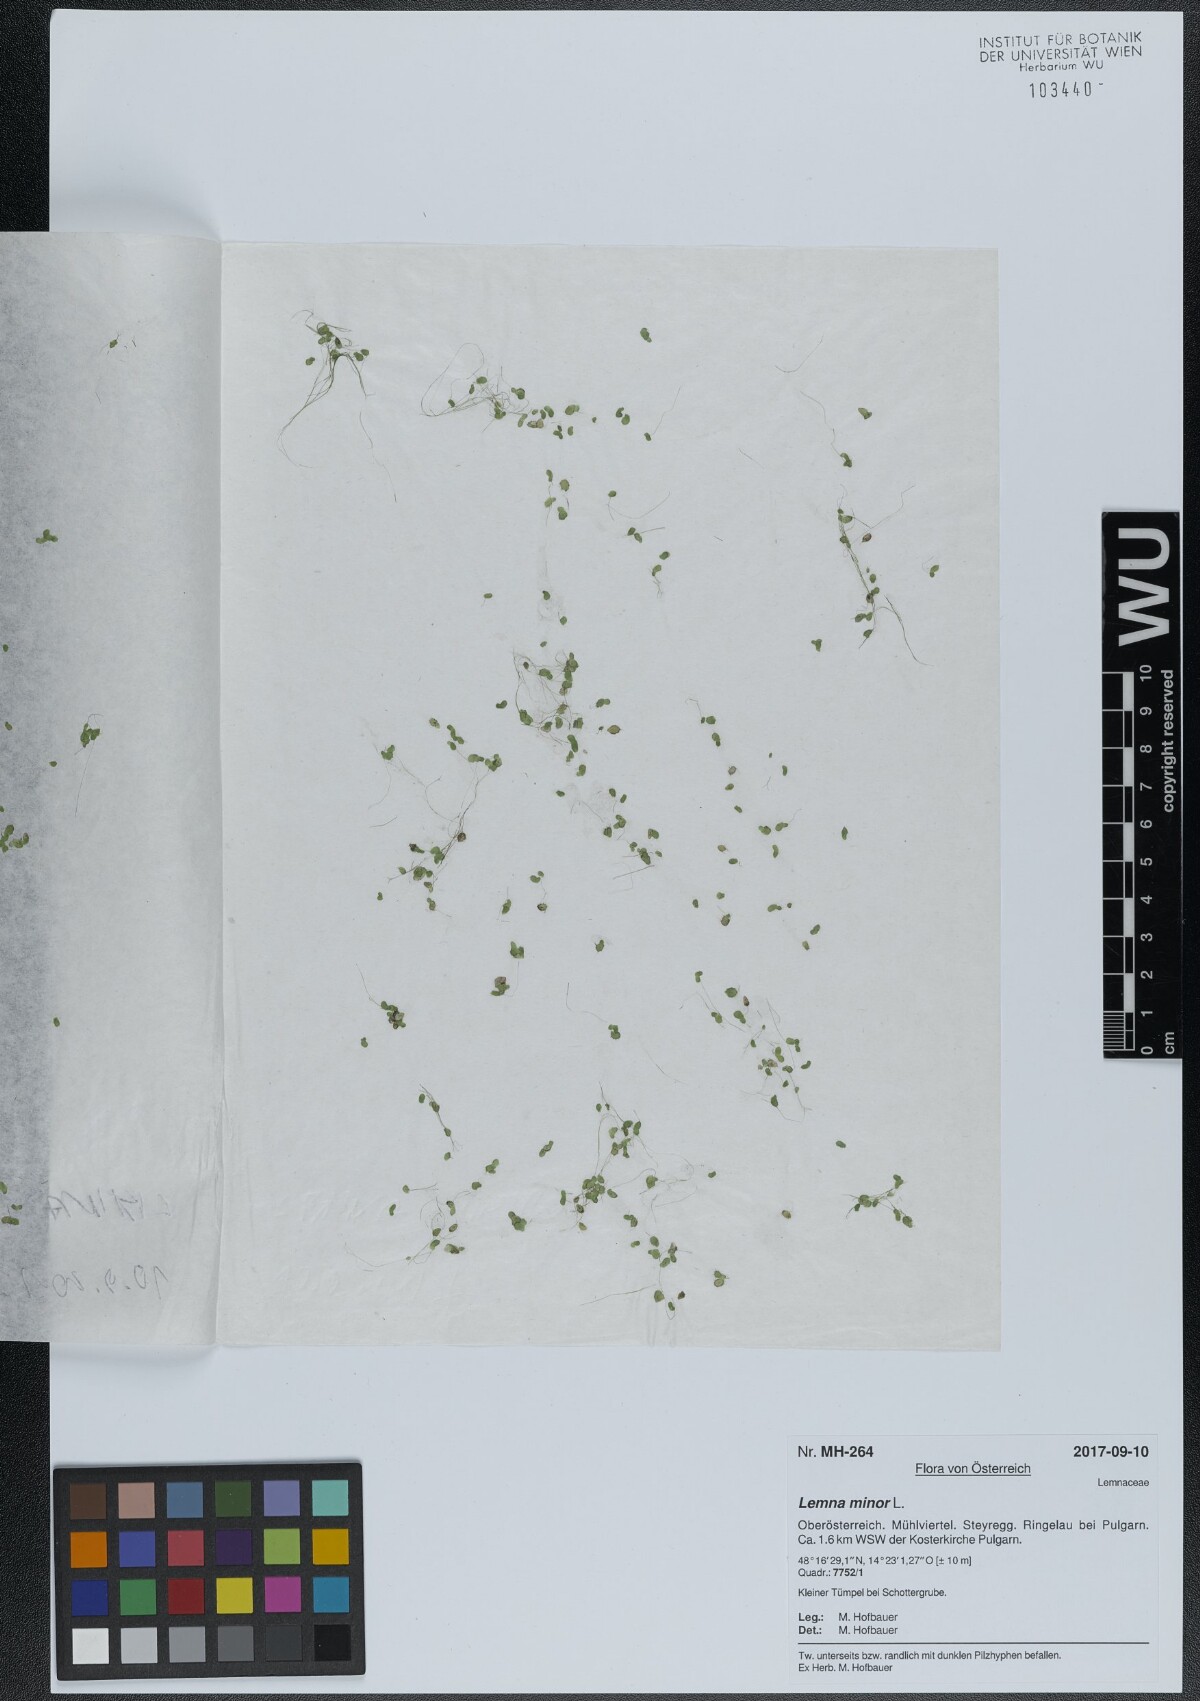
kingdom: Plantae
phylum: Tracheophyta
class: Liliopsida
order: Alismatales
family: Araceae
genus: Lemna
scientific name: Lemna minor
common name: Common duckweed
